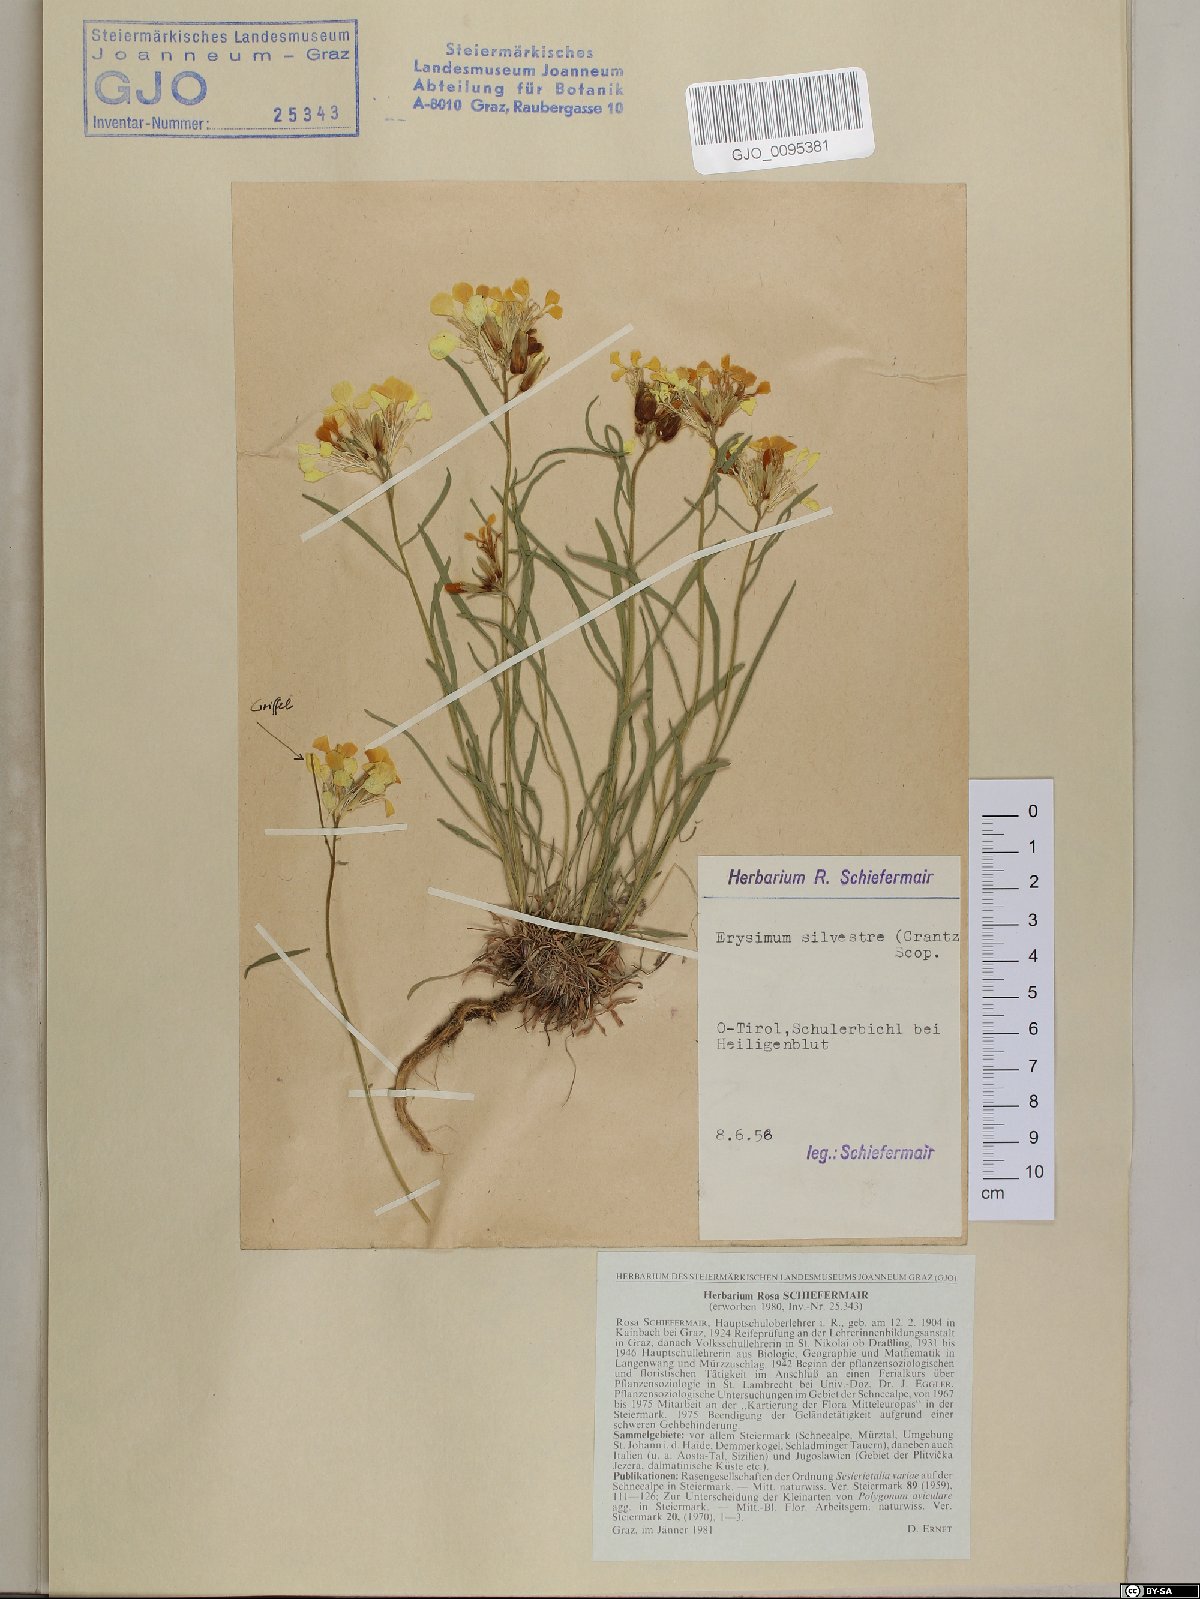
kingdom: Plantae
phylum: Tracheophyta
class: Magnoliopsida
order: Brassicales
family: Brassicaceae
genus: Erysimum
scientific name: Erysimum sylvestre
